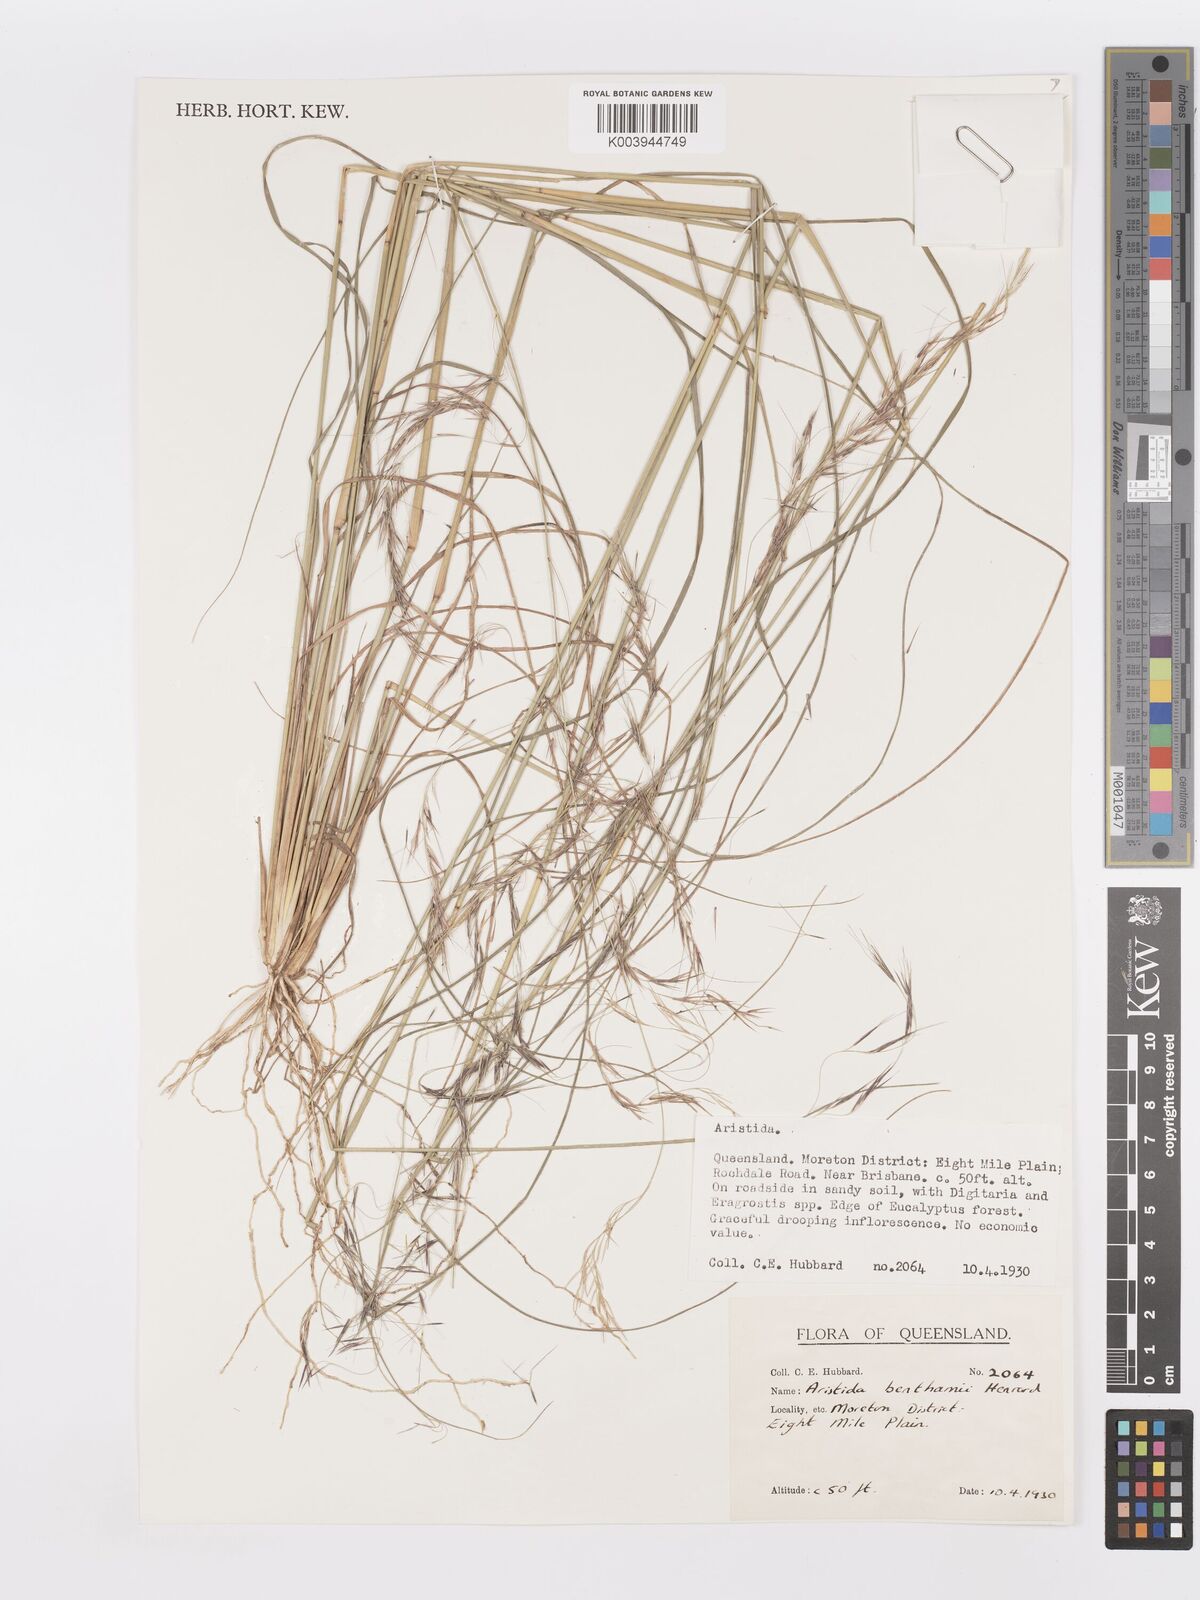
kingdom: Plantae
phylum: Tracheophyta
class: Liliopsida
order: Poales
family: Poaceae
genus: Aristida
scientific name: Aristida benthamii
